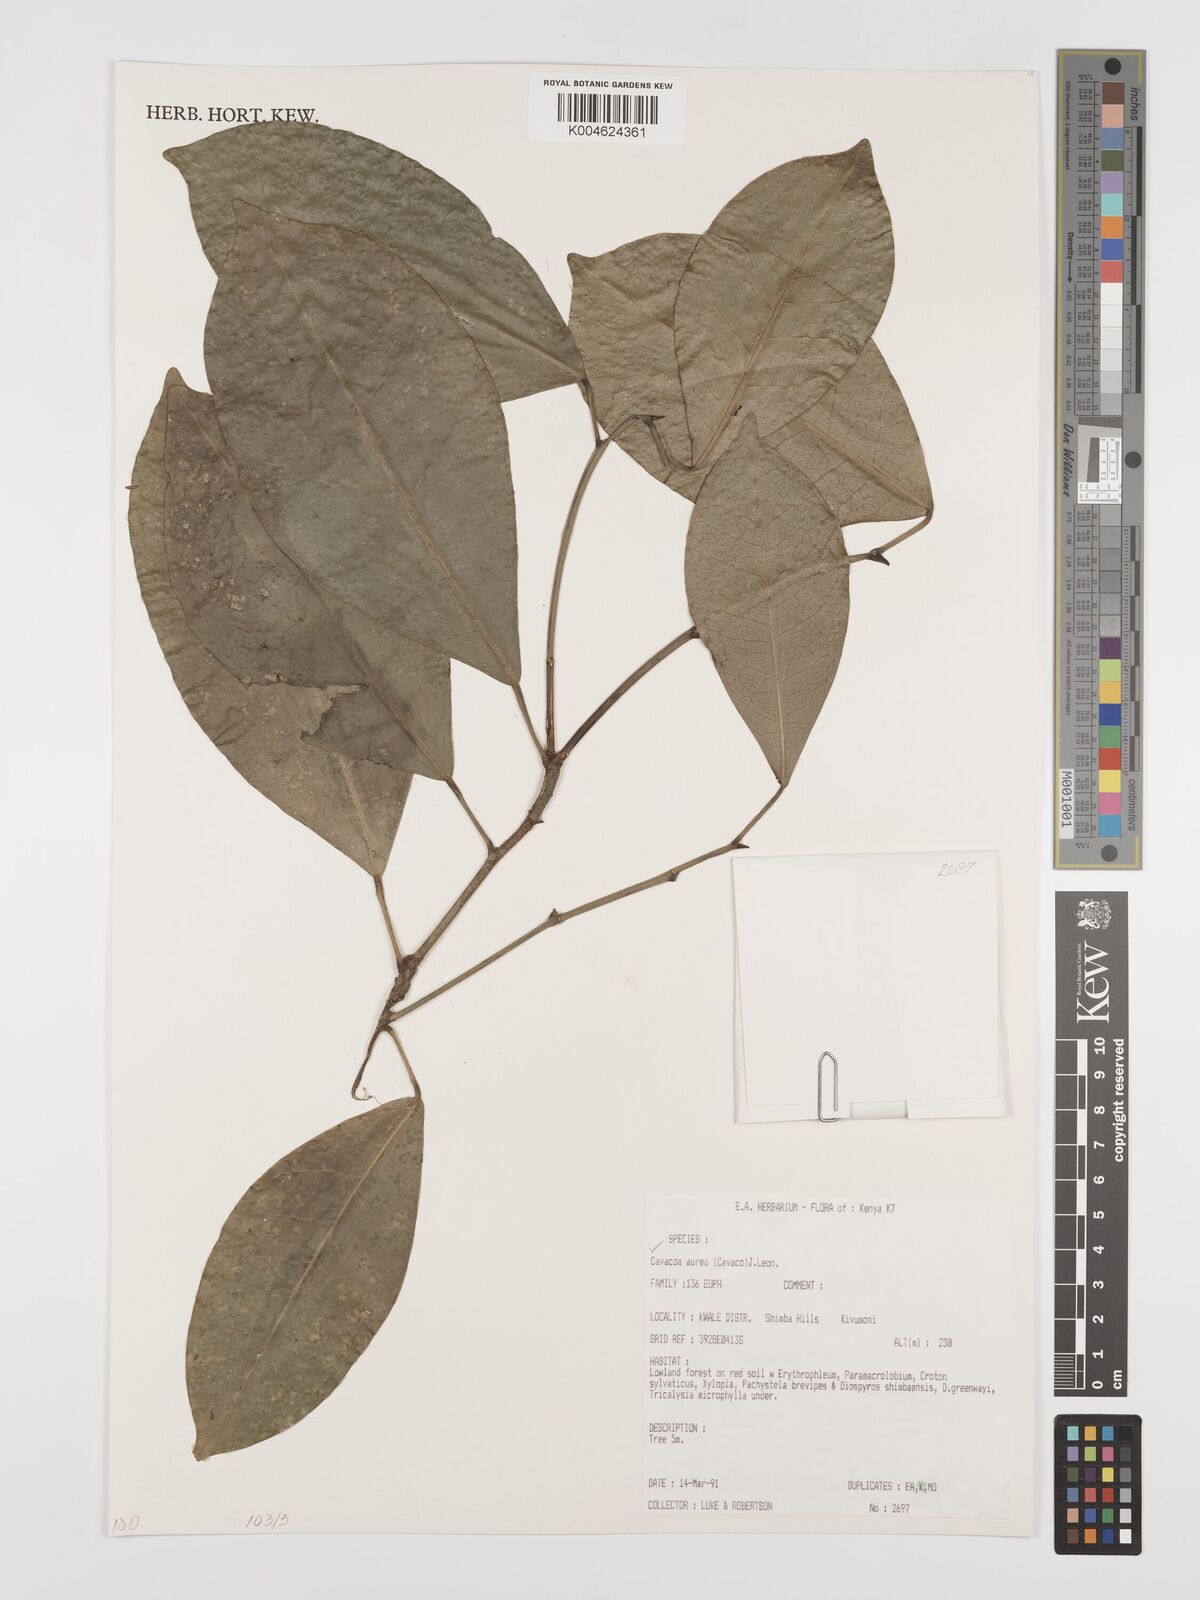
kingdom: Plantae
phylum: Tracheophyta
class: Magnoliopsida
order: Malpighiales
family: Euphorbiaceae
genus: Cavacoa
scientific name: Cavacoa aurea
